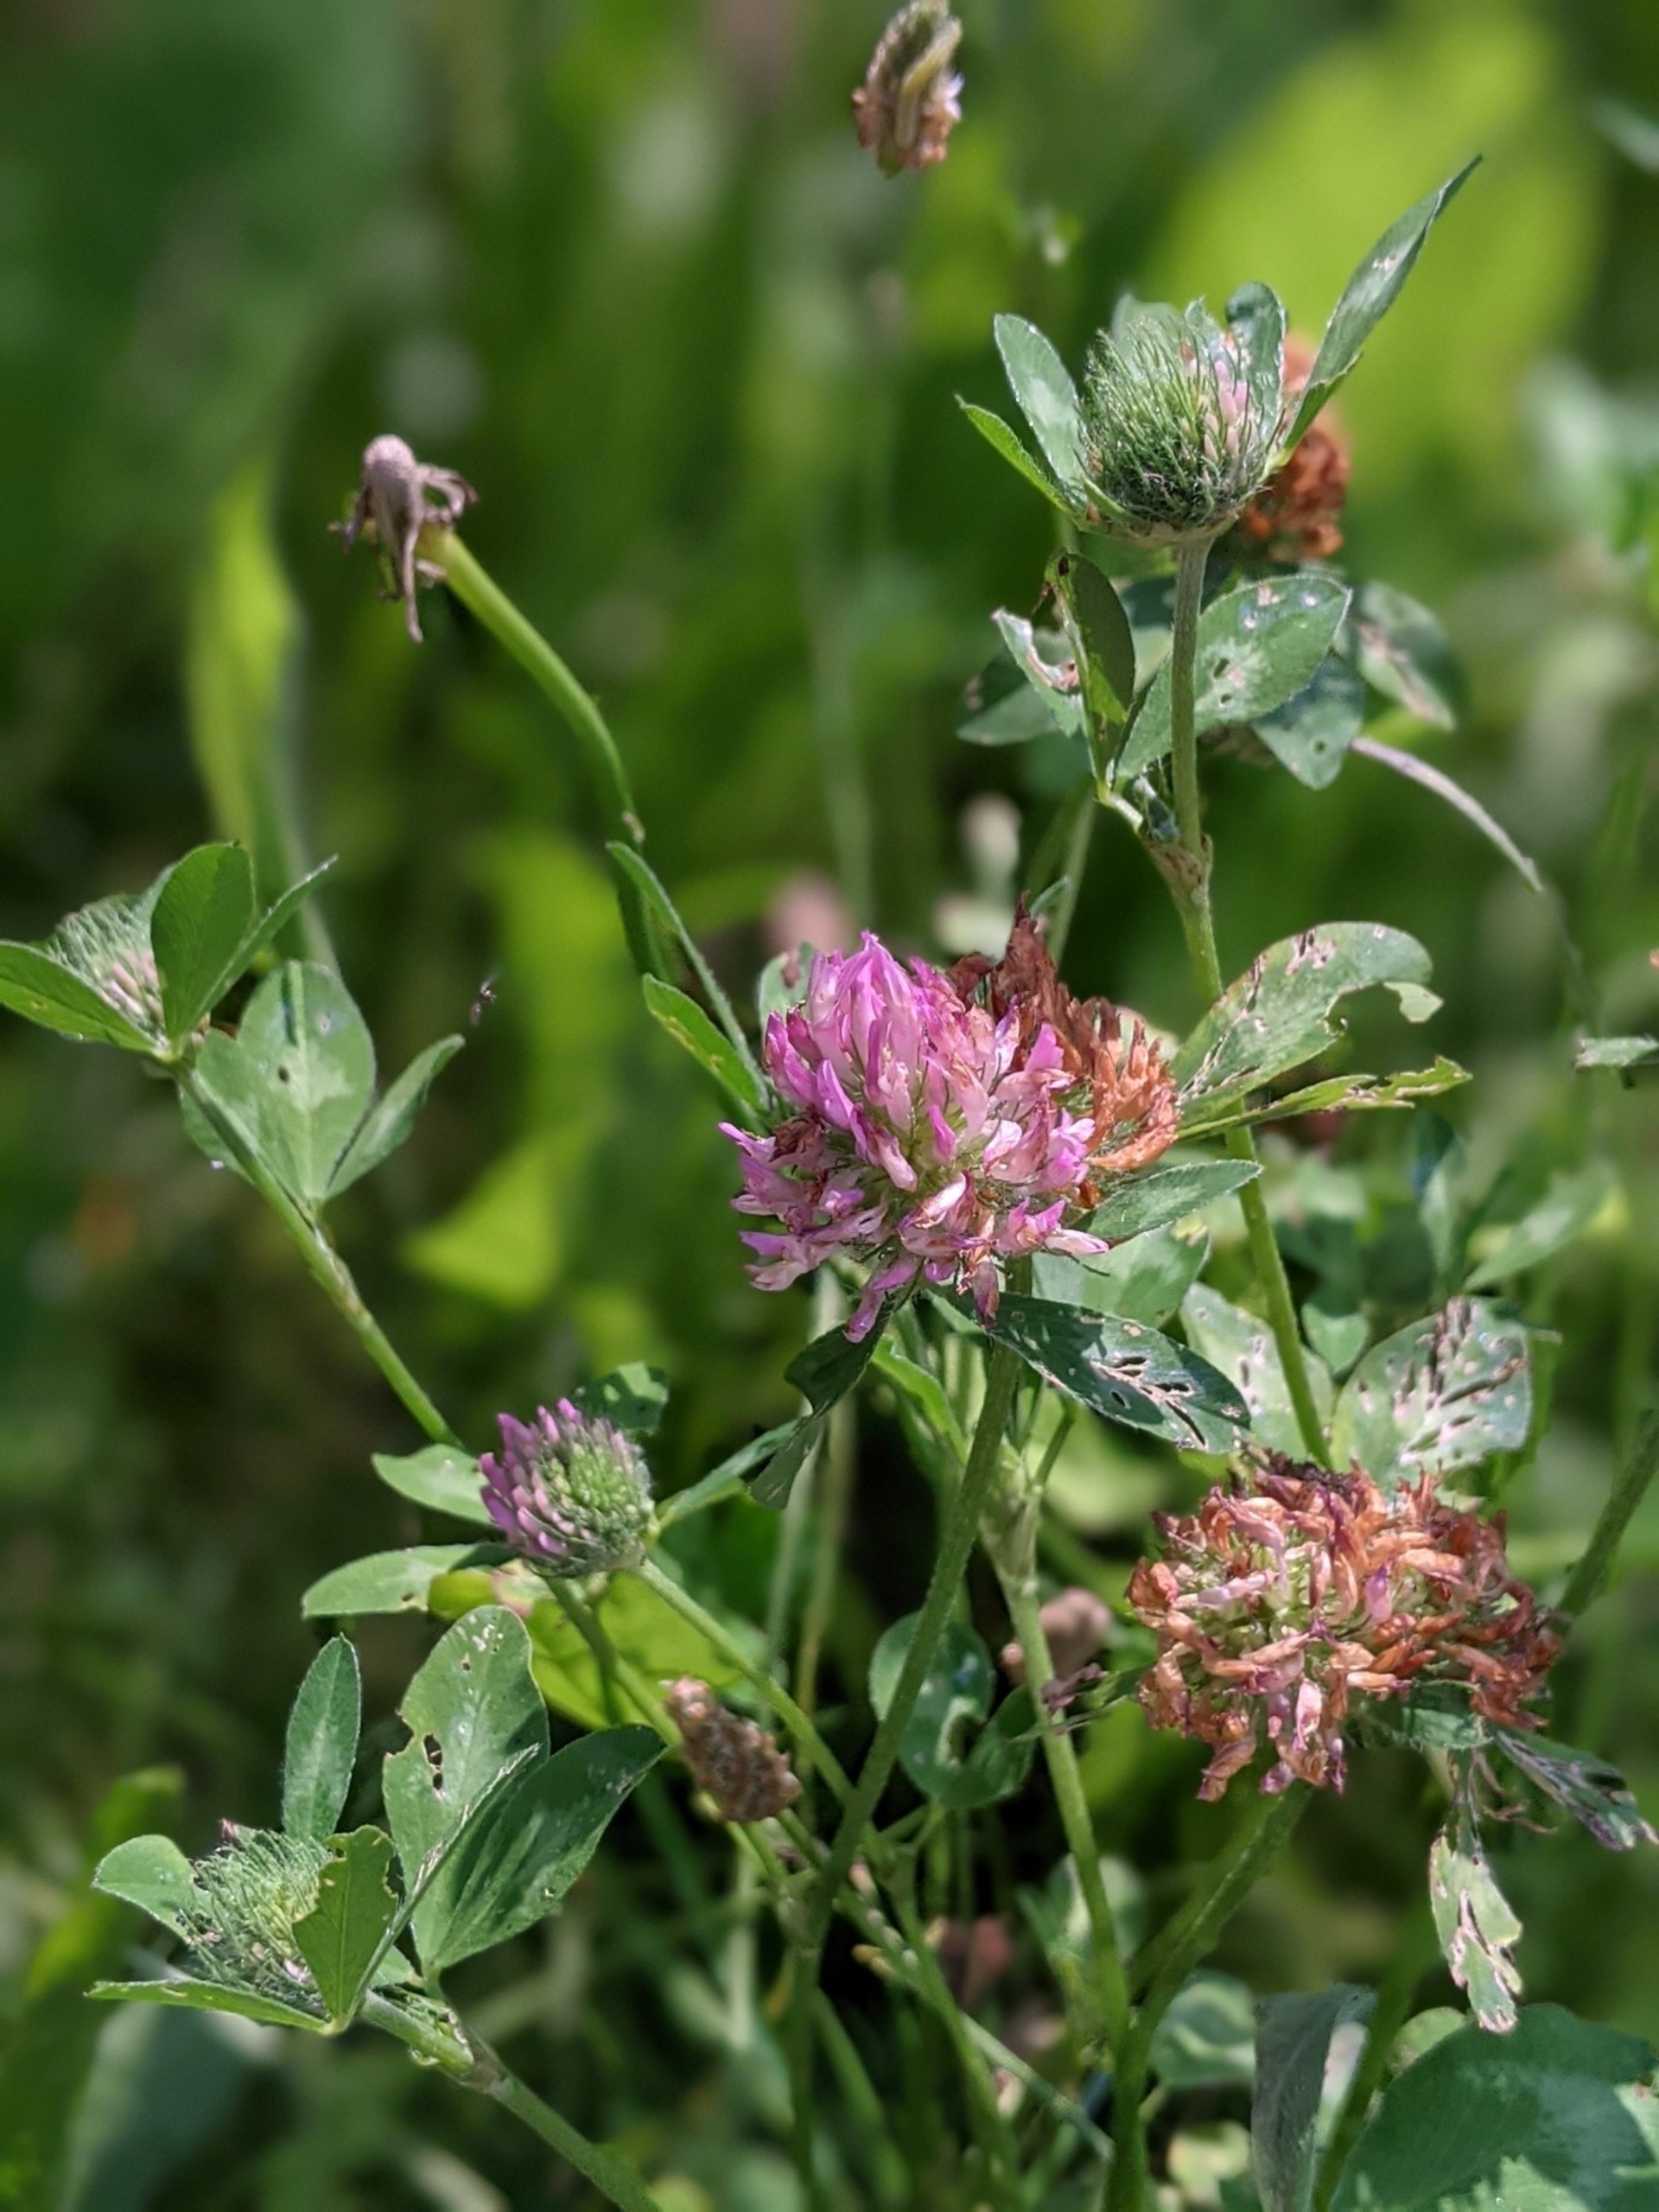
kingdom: Plantae
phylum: Tracheophyta
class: Magnoliopsida
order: Fabales
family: Fabaceae
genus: Trifolium
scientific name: Trifolium pratense
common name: Rød-kløver
